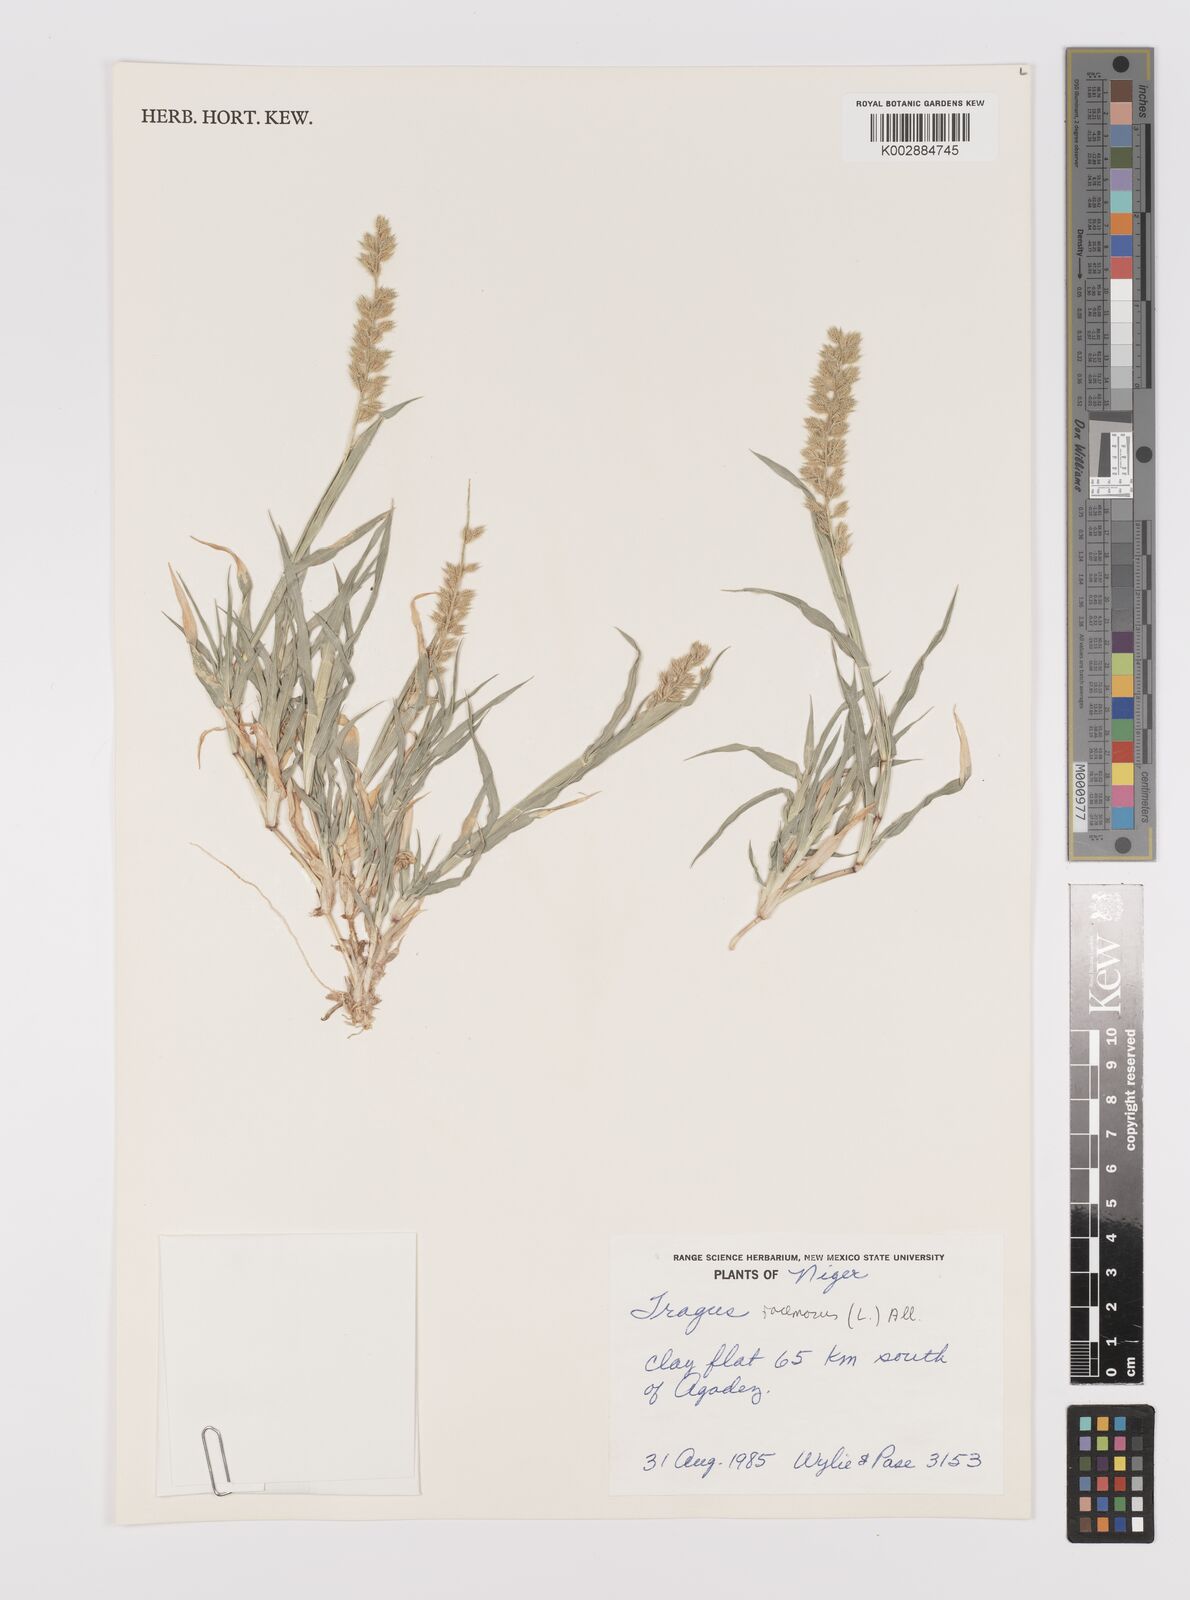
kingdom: Plantae
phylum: Tracheophyta
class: Liliopsida
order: Poales
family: Poaceae
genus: Tragus
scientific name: Tragus racemosus
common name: European bur-grass
